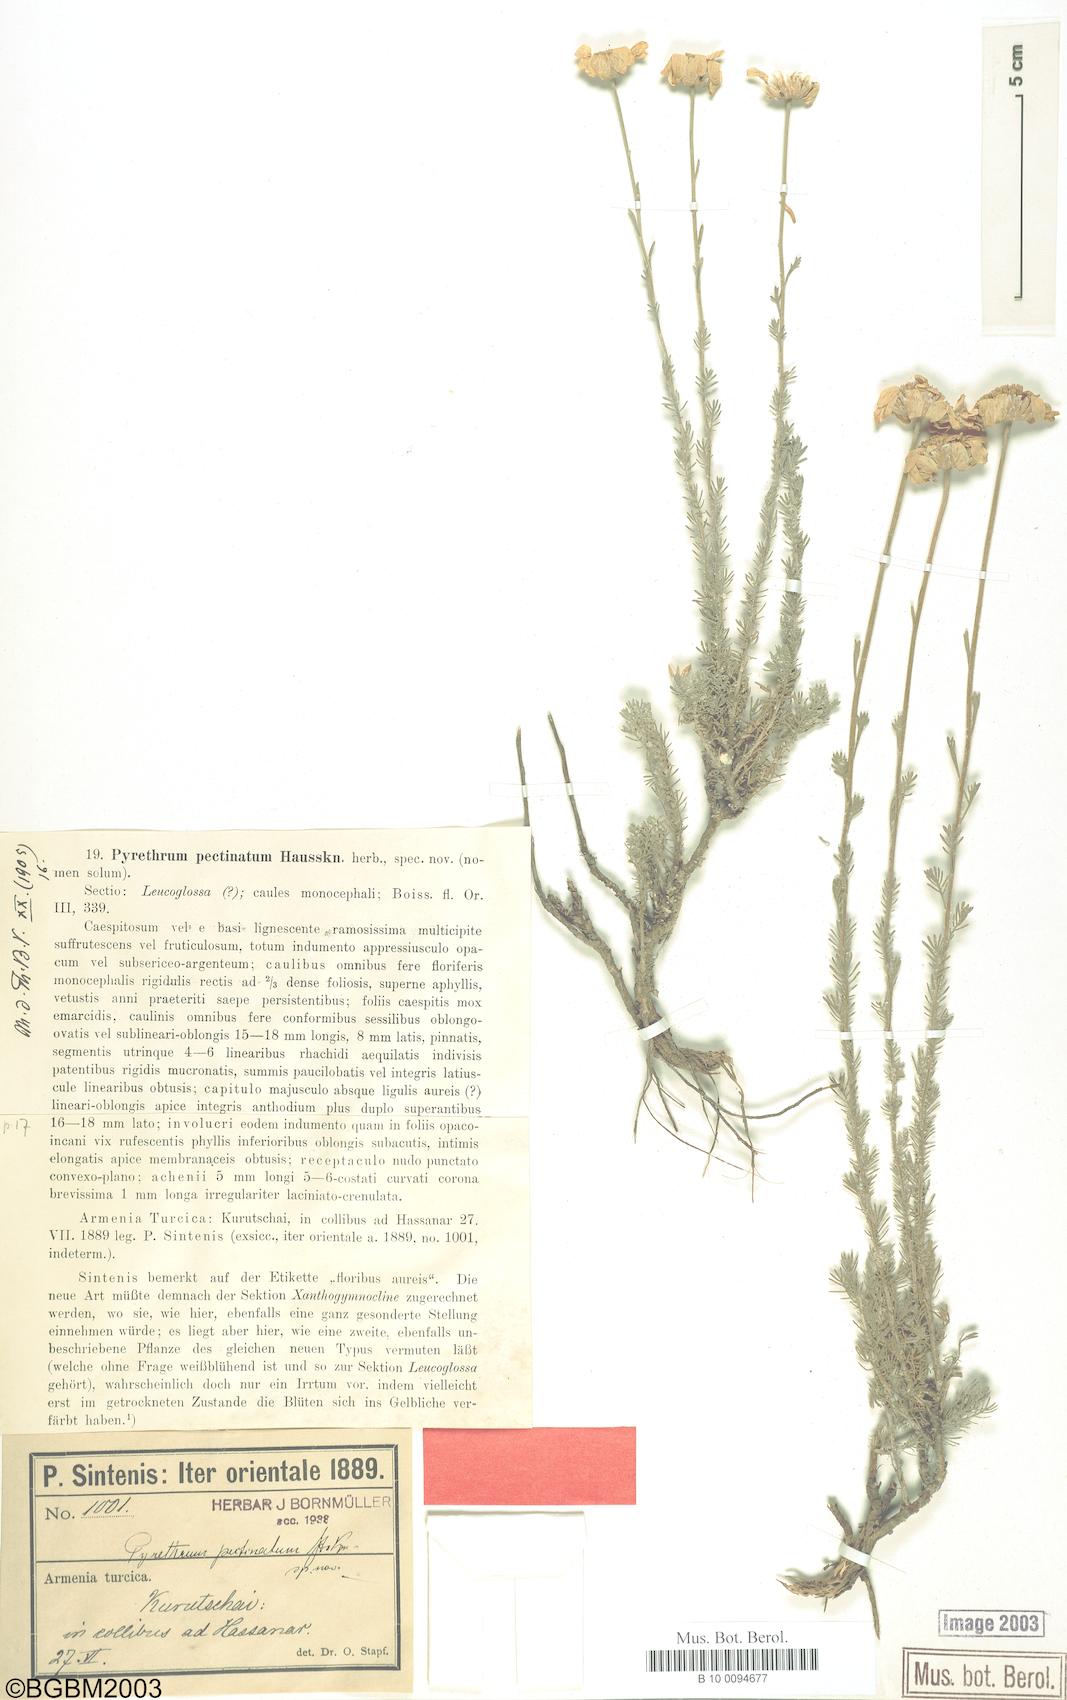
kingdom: Plantae
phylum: Tracheophyta
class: Magnoliopsida
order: Asterales
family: Asteraceae
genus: Tanacetum
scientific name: Tanacetum heterotomum
